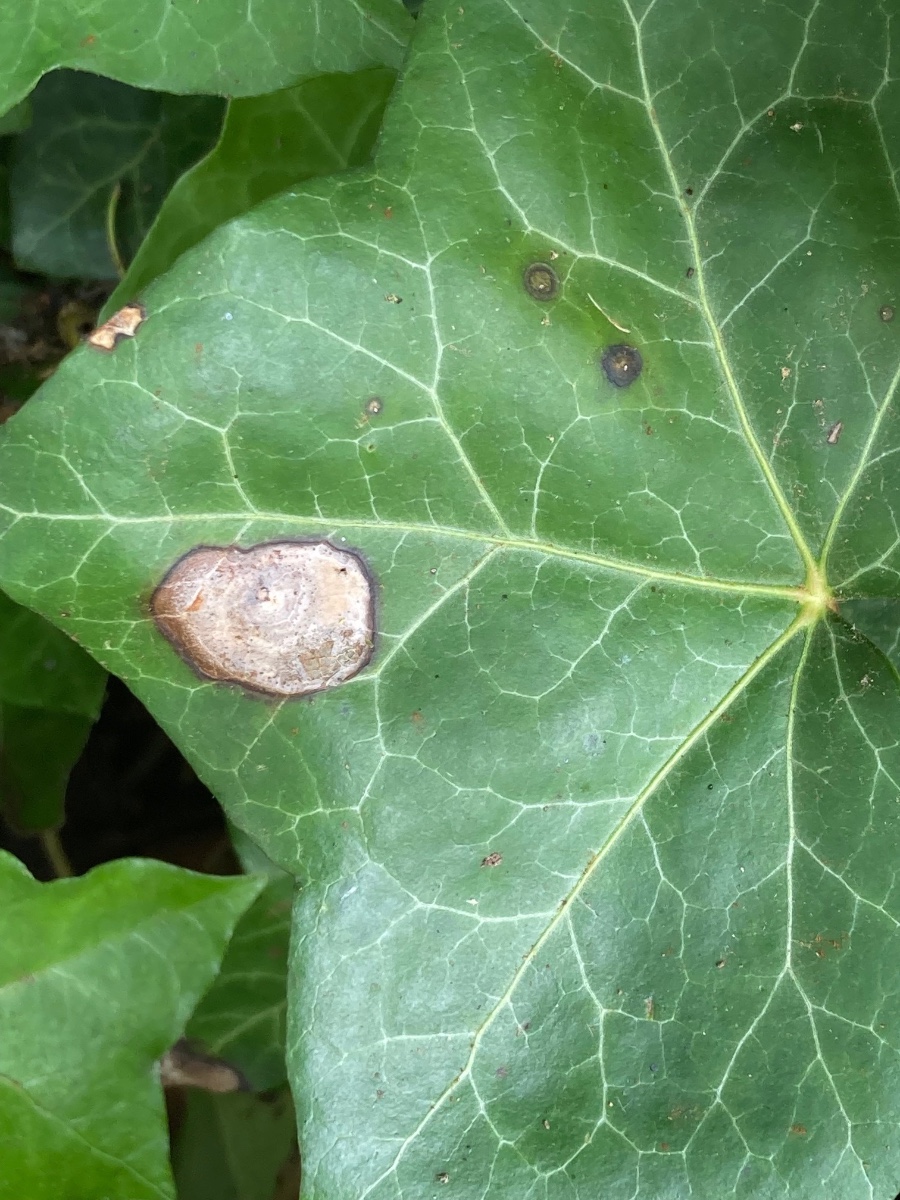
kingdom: Fungi
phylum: Ascomycota
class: Dothideomycetes
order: Pleosporales
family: Didymellaceae
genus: Boeremia
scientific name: Boeremia hedericola
